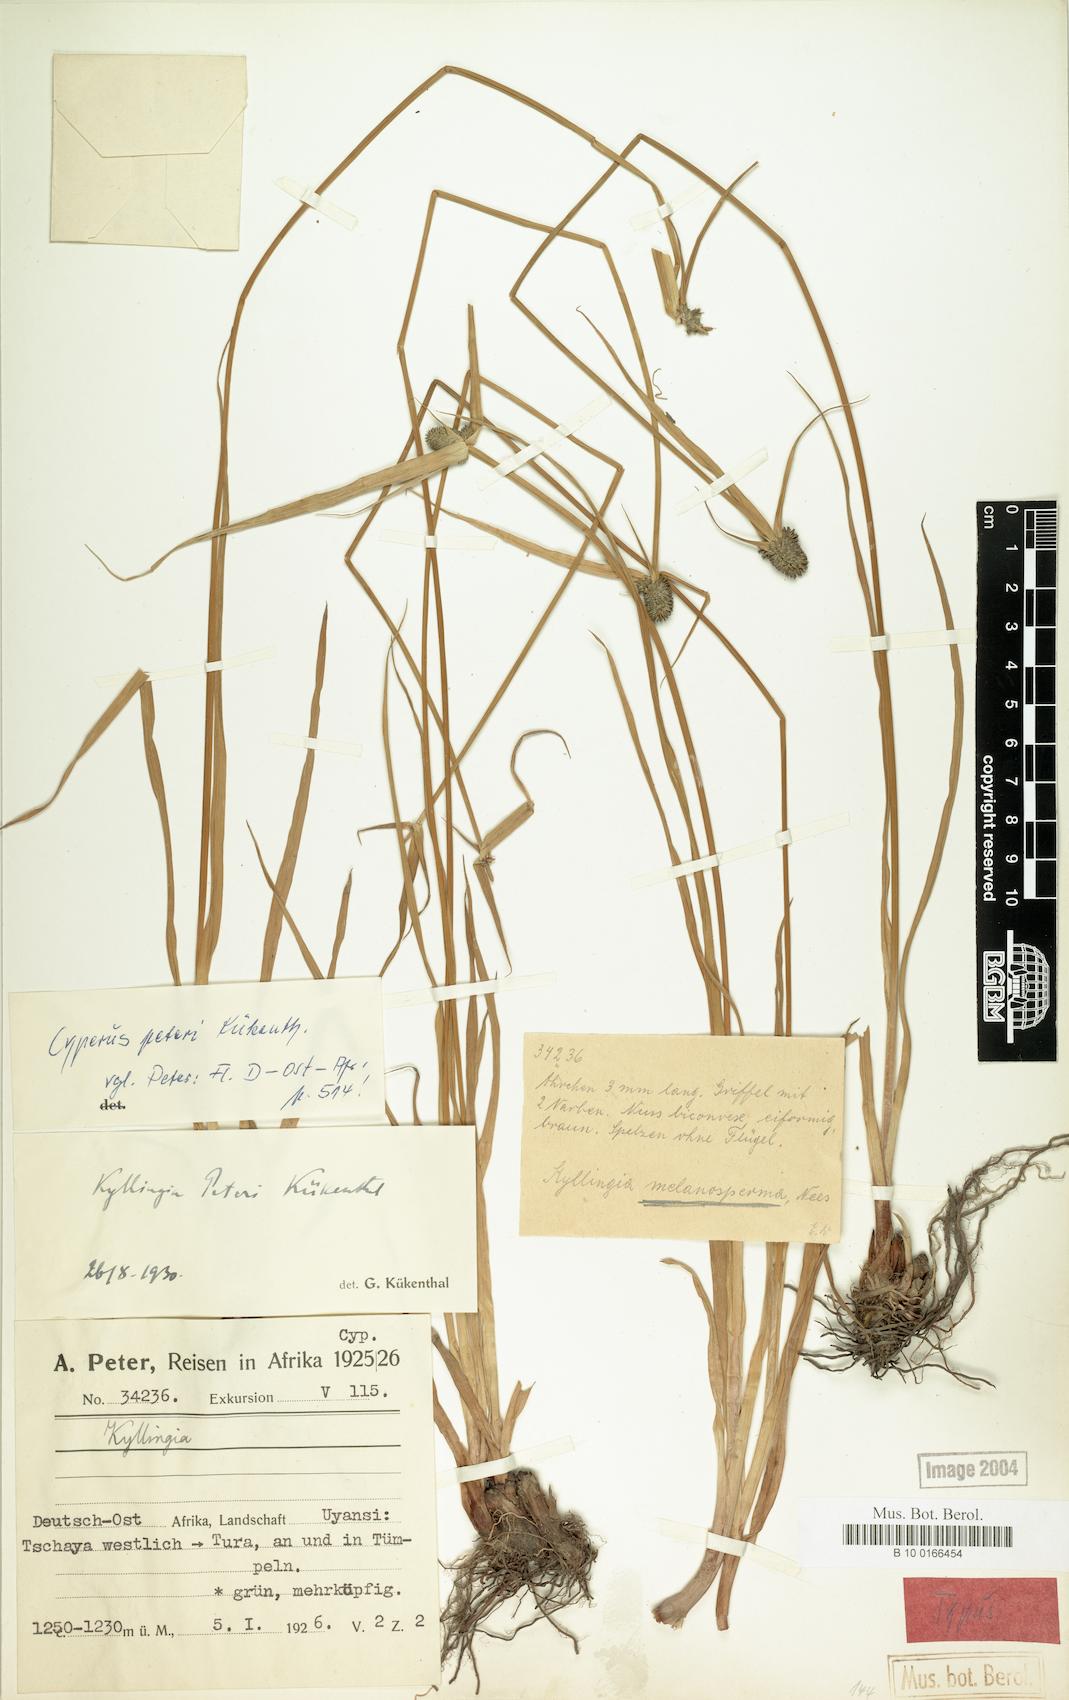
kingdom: Plantae
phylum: Tracheophyta
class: Liliopsida
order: Poales
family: Cyperaceae
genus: Cyperus
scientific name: Cyperus peteri
